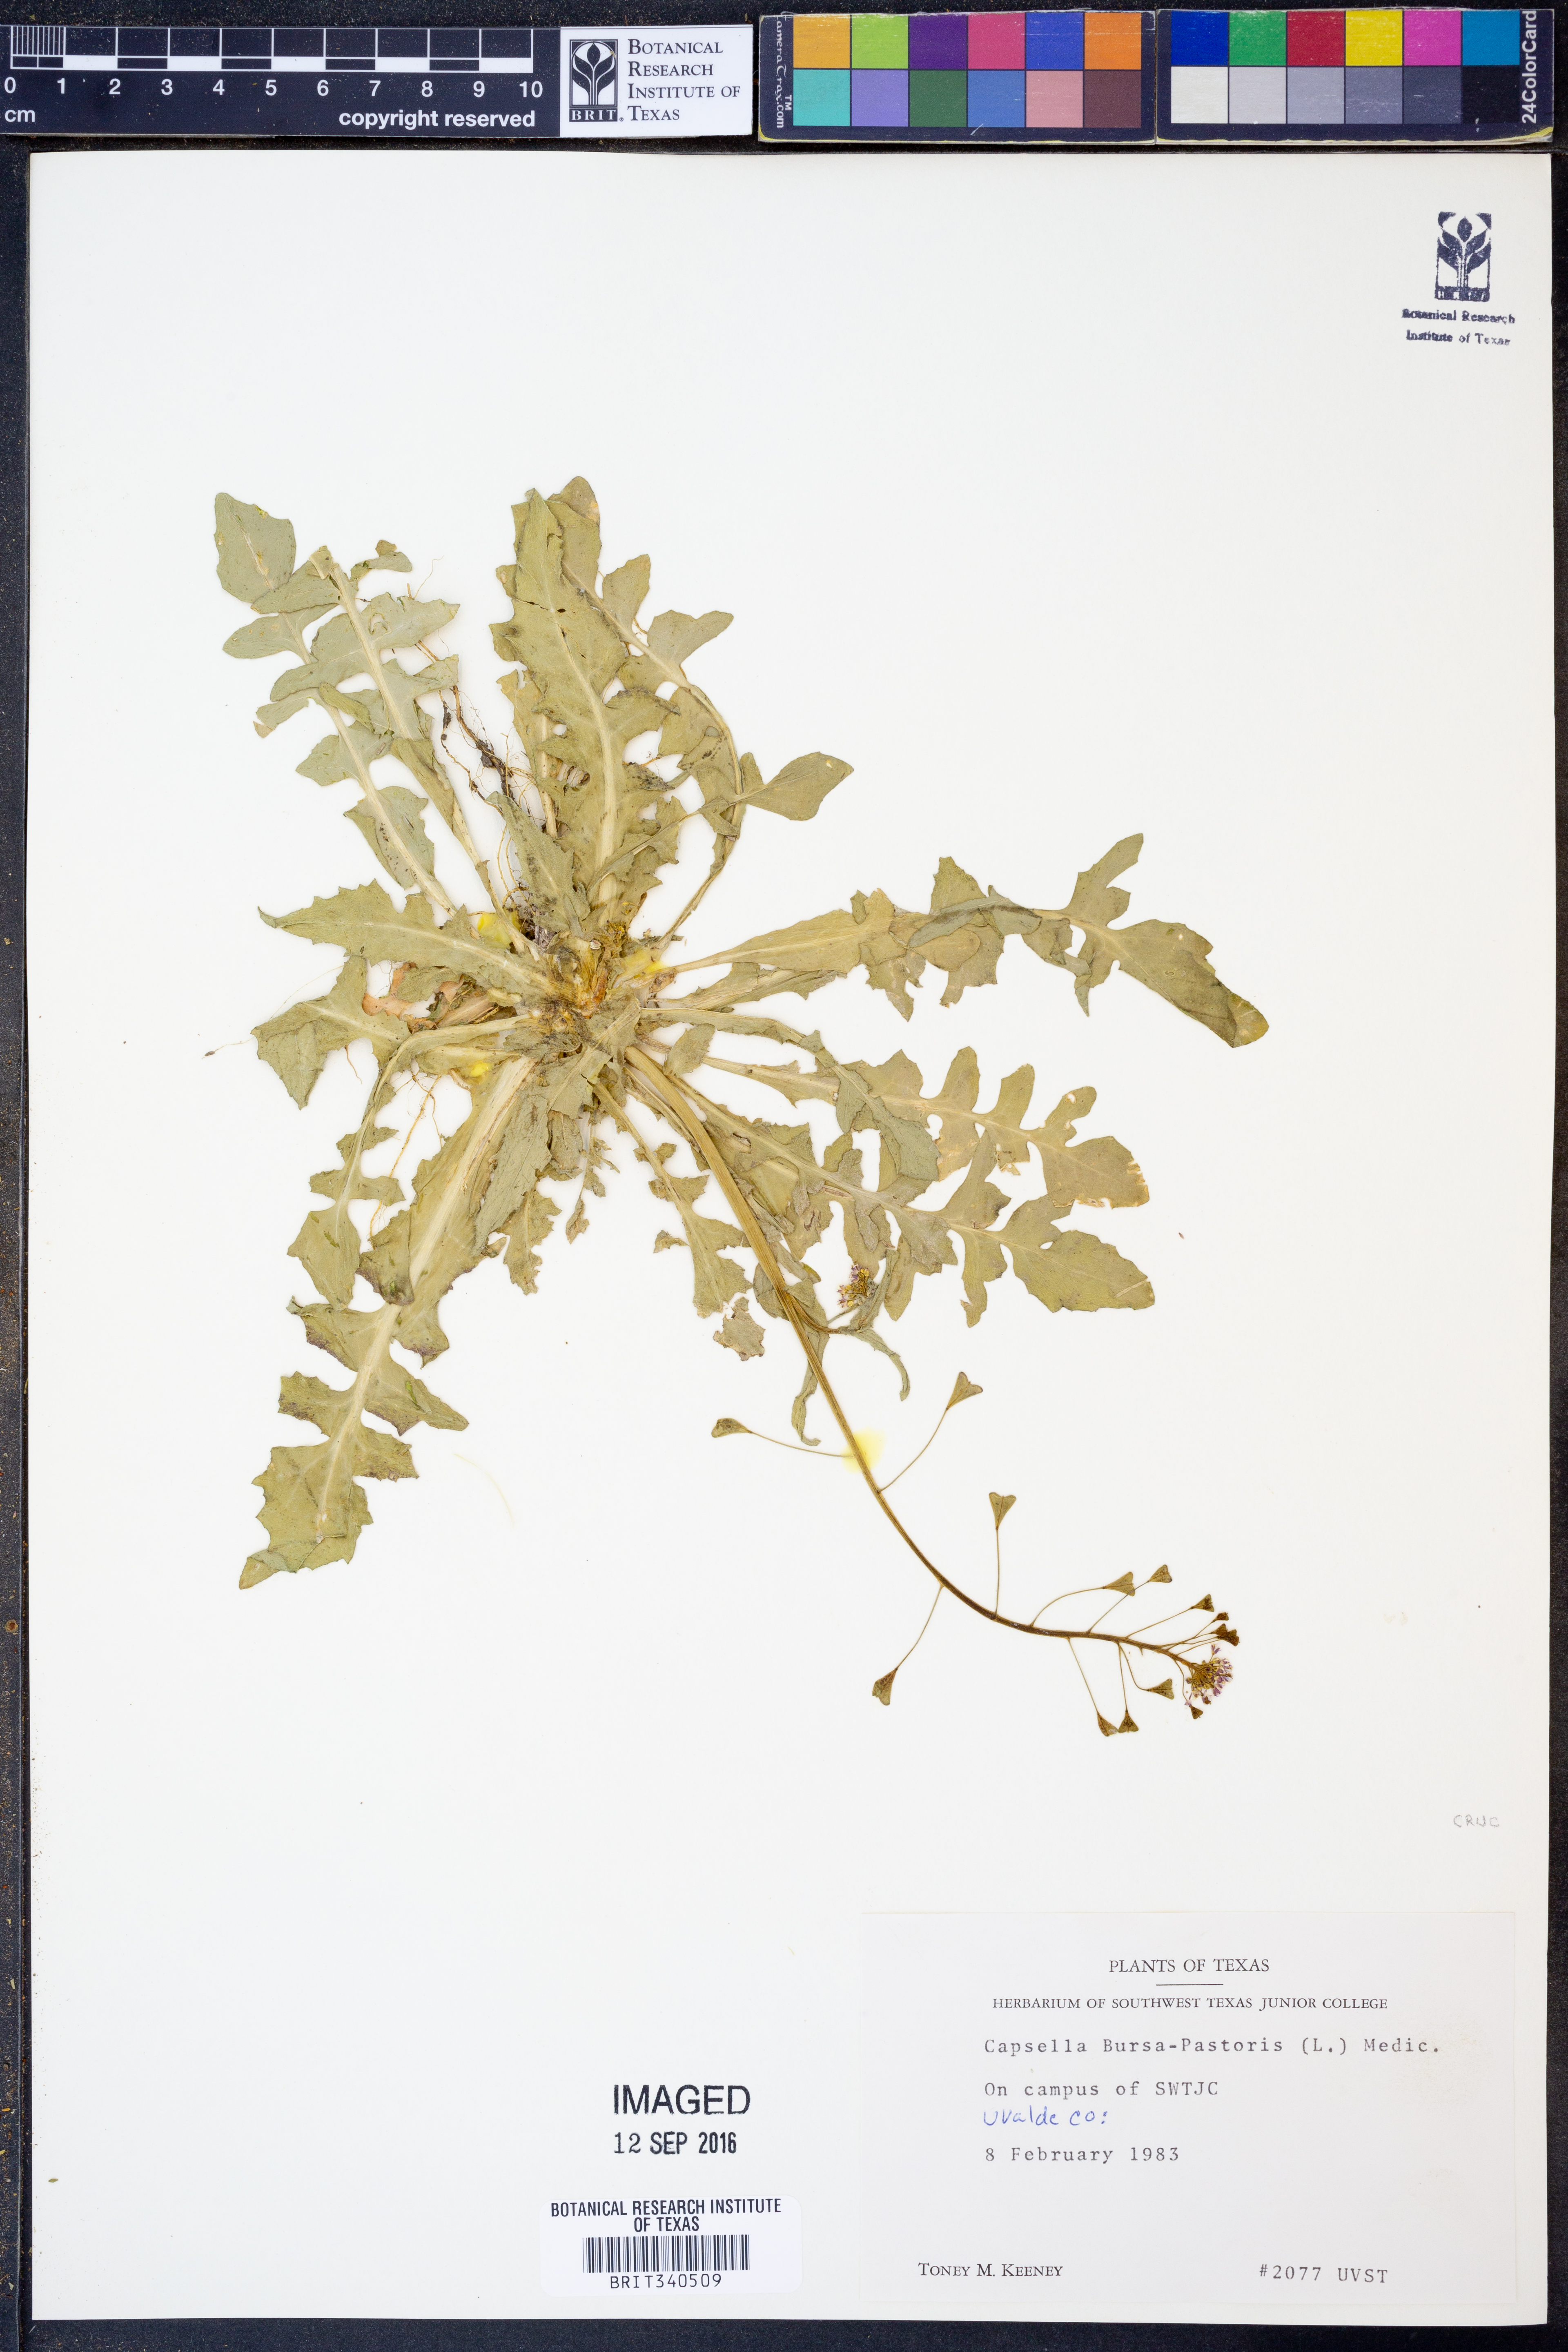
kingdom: Plantae
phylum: Tracheophyta
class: Magnoliopsida
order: Brassicales
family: Brassicaceae
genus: Capsella
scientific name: Capsella bursa-pastoris
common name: Shepherd's purse
